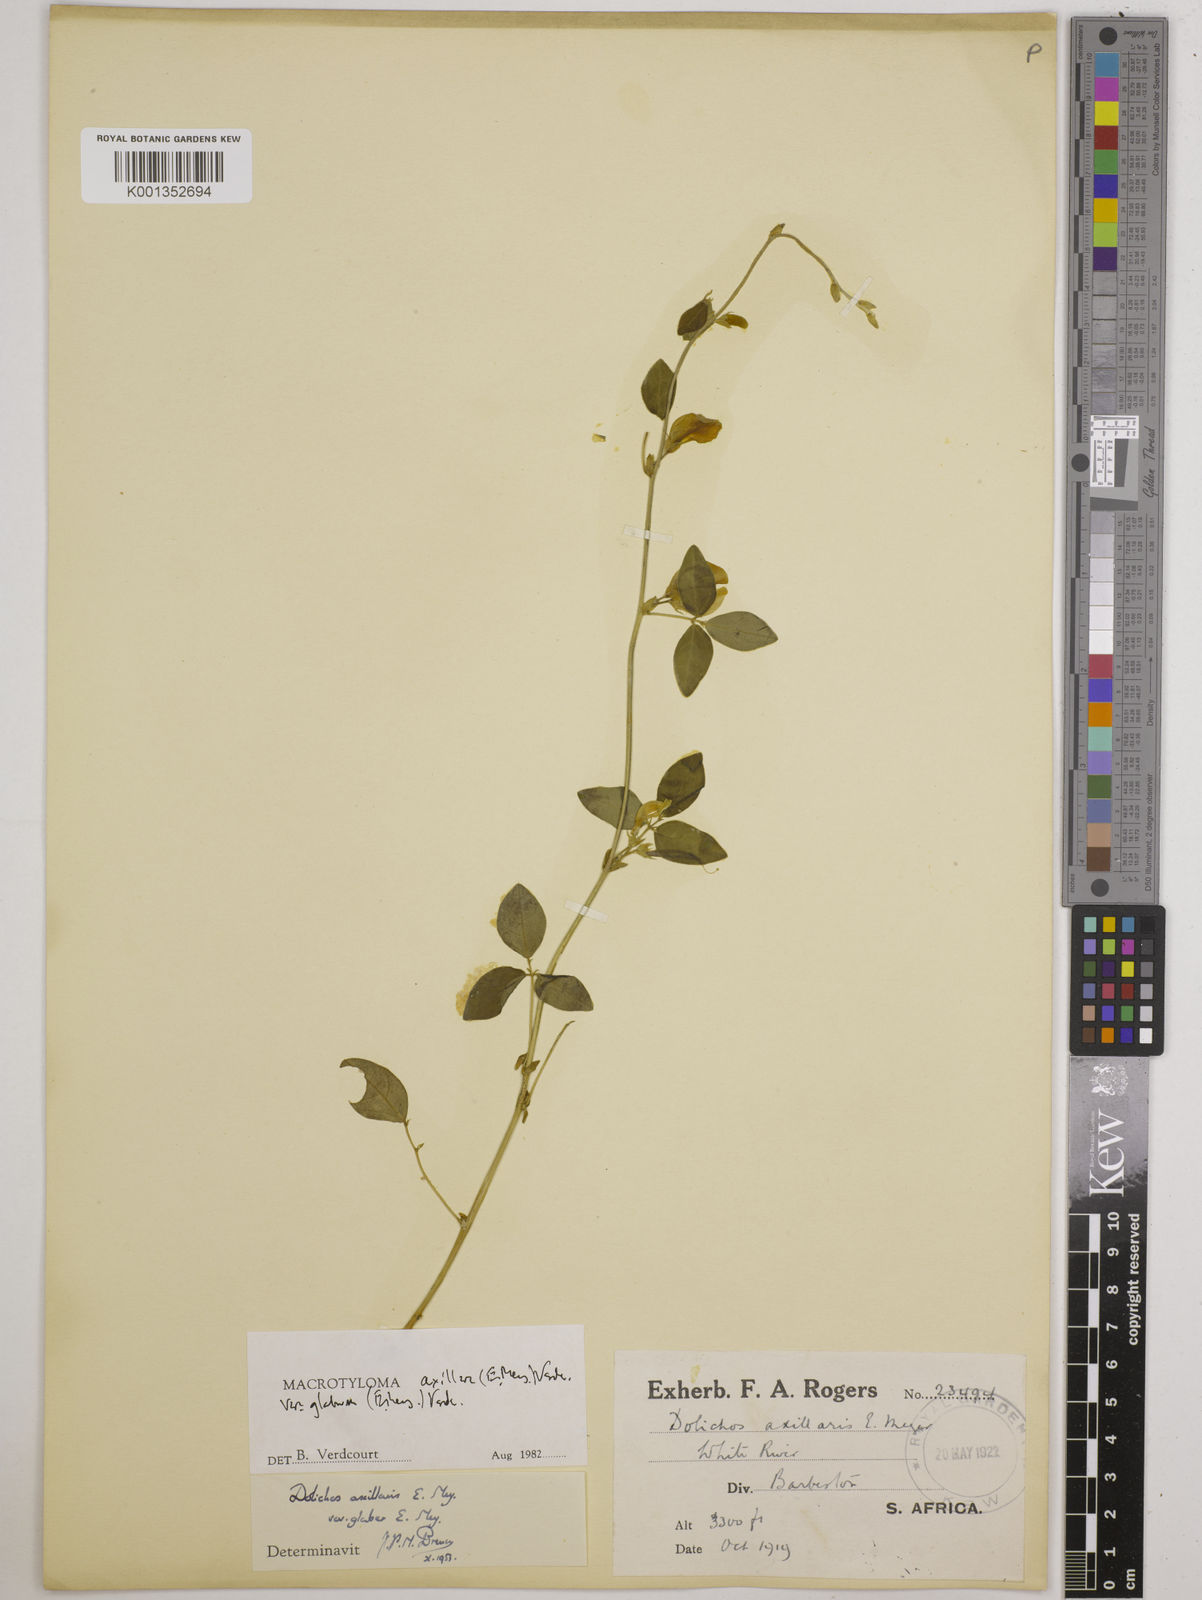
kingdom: Plantae
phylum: Tracheophyta
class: Magnoliopsida
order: Fabales
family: Fabaceae
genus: Macrotyloma
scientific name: Macrotyloma
